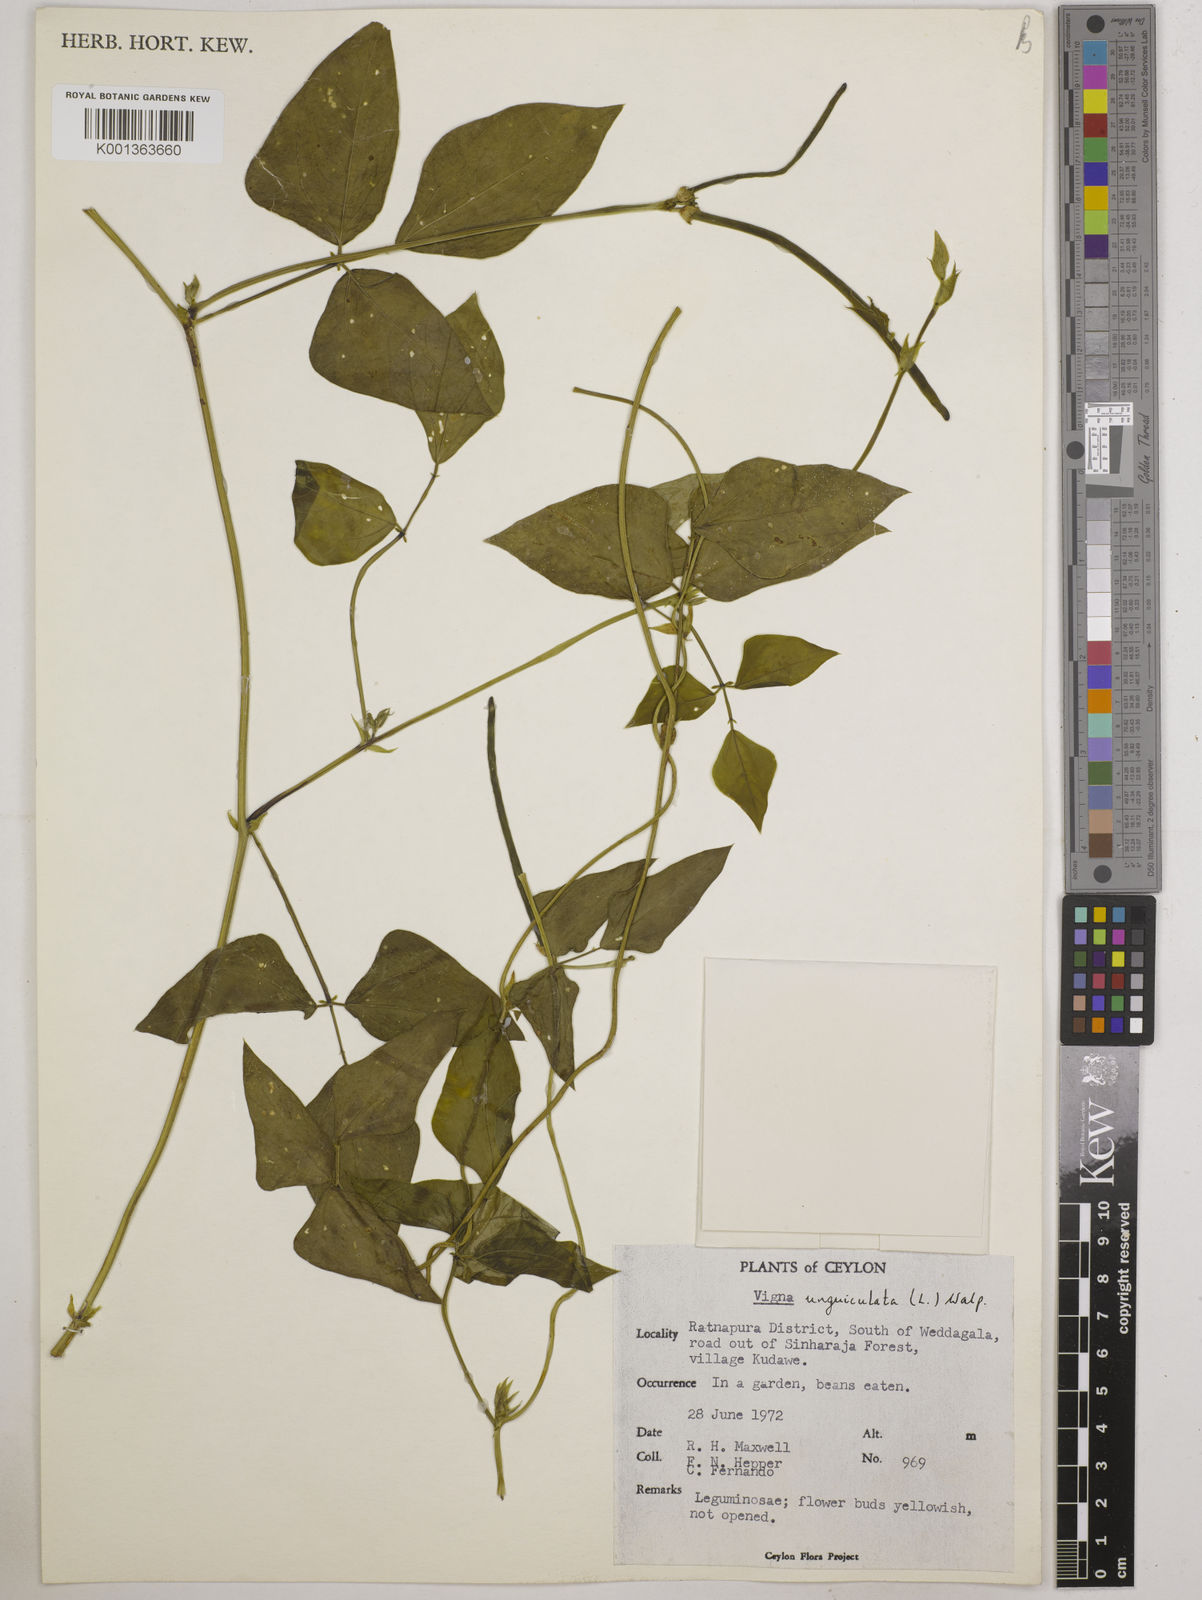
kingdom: Plantae
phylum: Tracheophyta
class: Magnoliopsida
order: Fabales
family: Fabaceae
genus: Vigna
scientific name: Vigna unguiculata
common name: Cowpea
